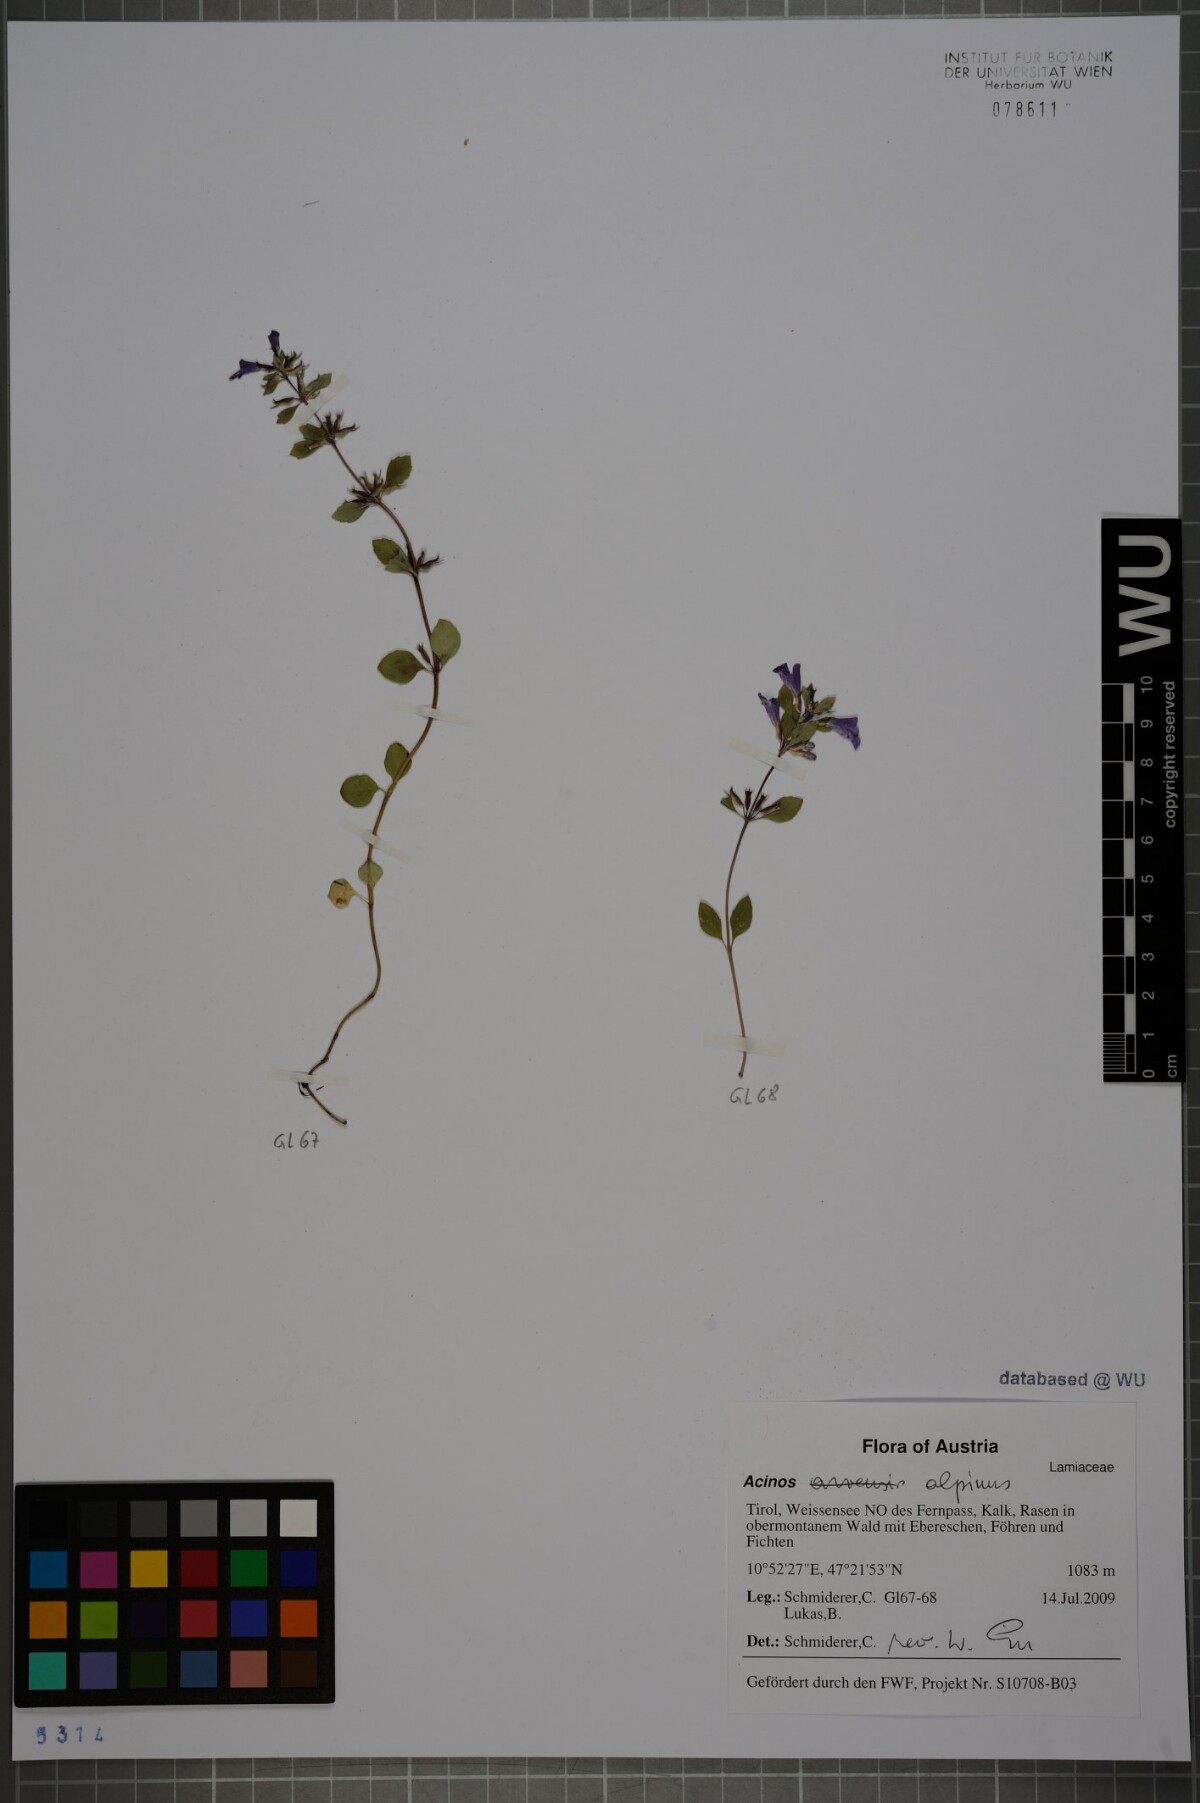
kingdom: Plantae
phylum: Tracheophyta
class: Magnoliopsida
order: Lamiales
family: Lamiaceae
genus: Clinopodium
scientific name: Clinopodium alpinum
